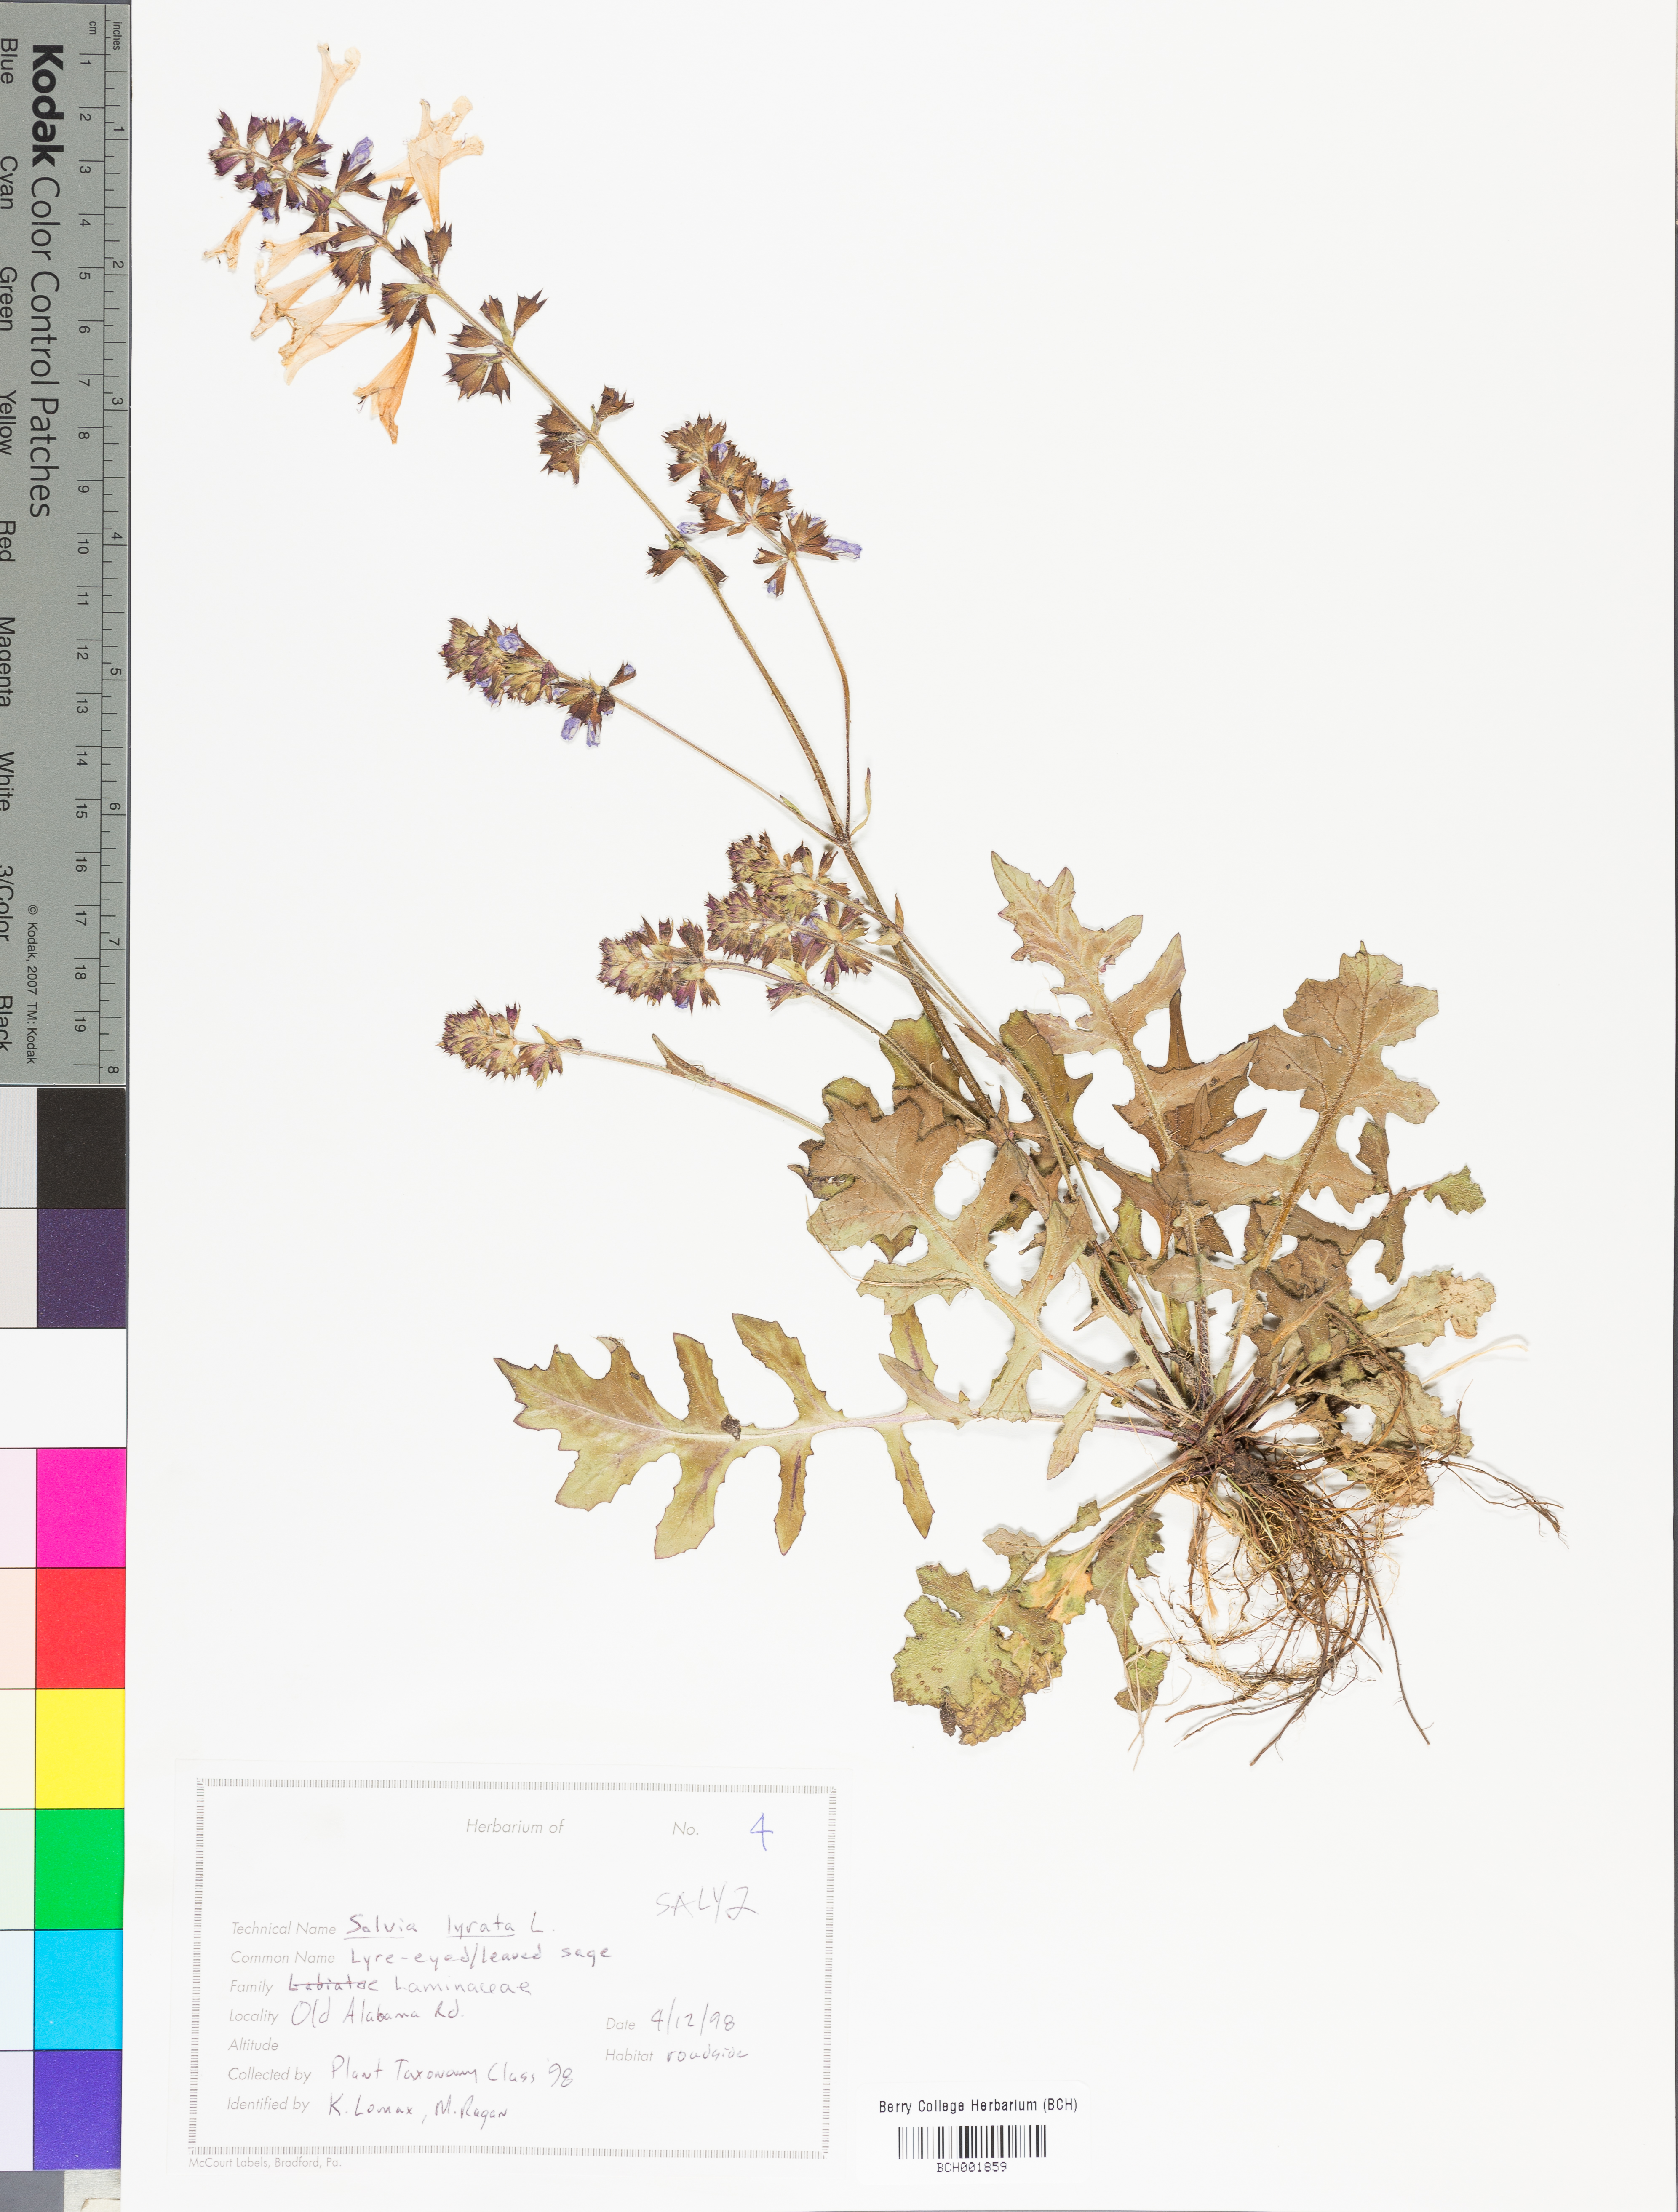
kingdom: Plantae
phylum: Tracheophyta
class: Magnoliopsida
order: Lamiales
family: Lamiaceae
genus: Salvia
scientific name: Salvia lyrata
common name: Cancerweed
